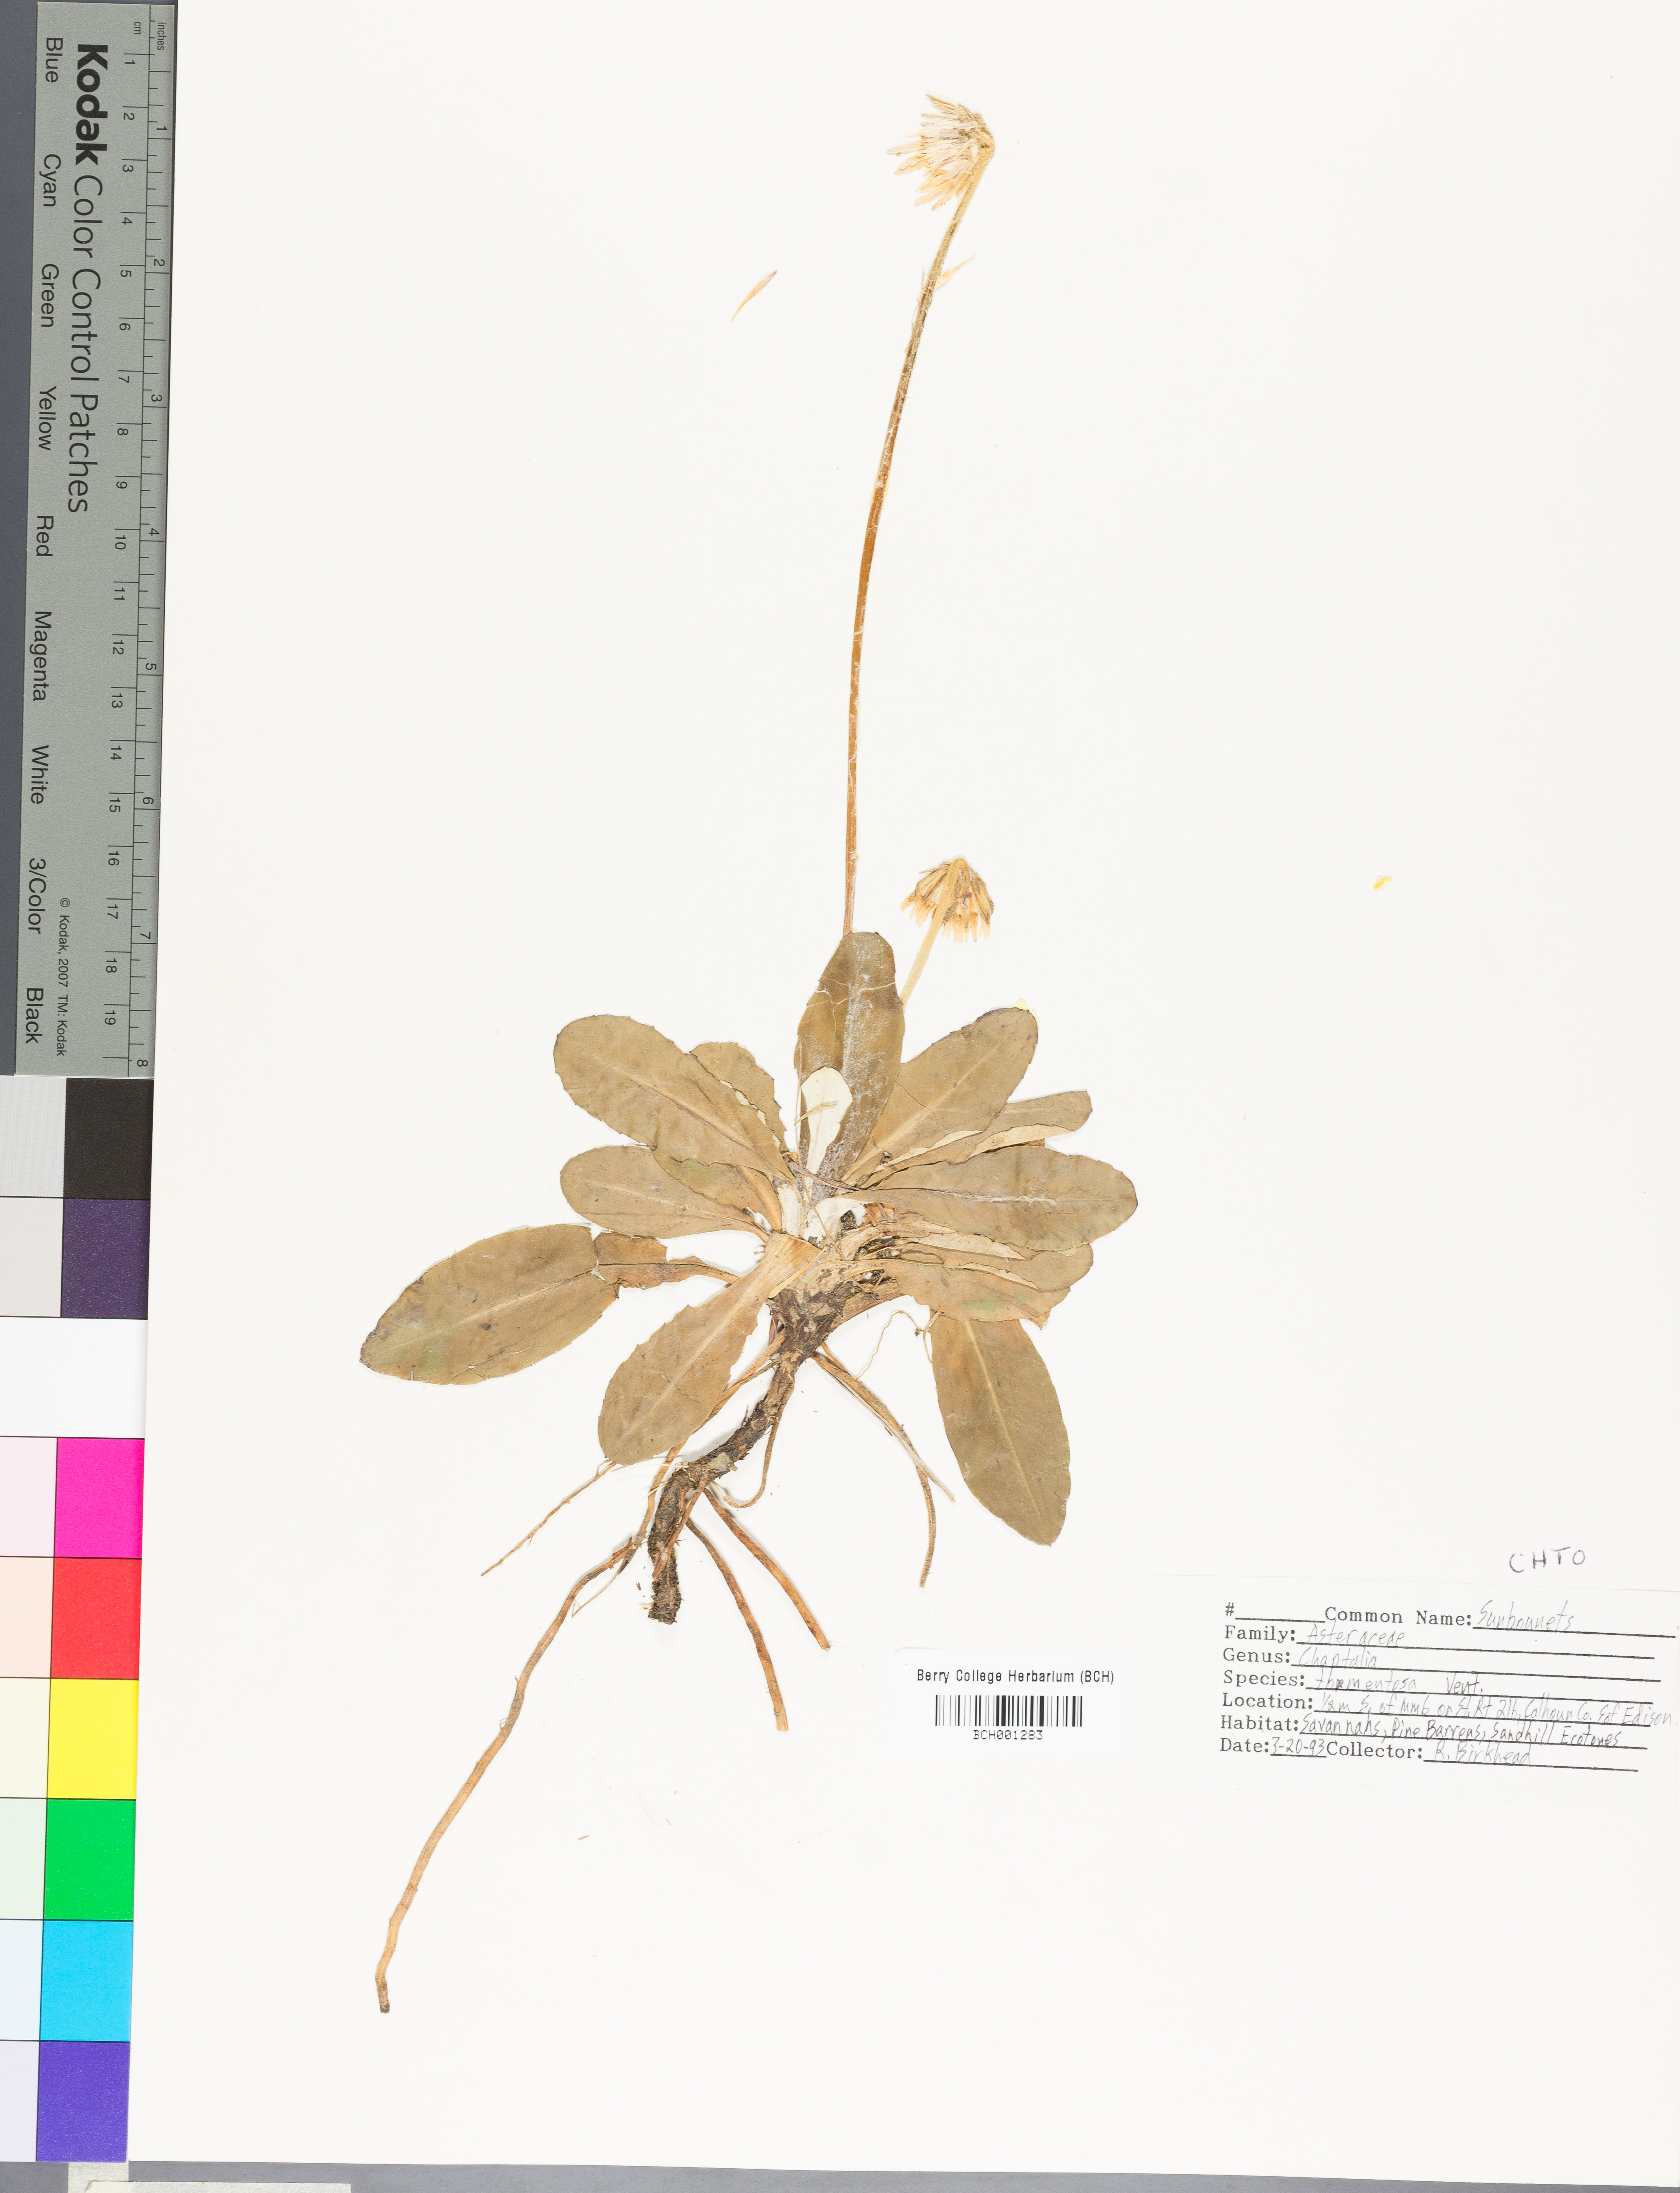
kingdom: Plantae
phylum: Tracheophyta
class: Magnoliopsida
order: Asterales
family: Asteraceae
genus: Helianthus
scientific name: Helianthus angustifolius
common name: Swamp sunflower
